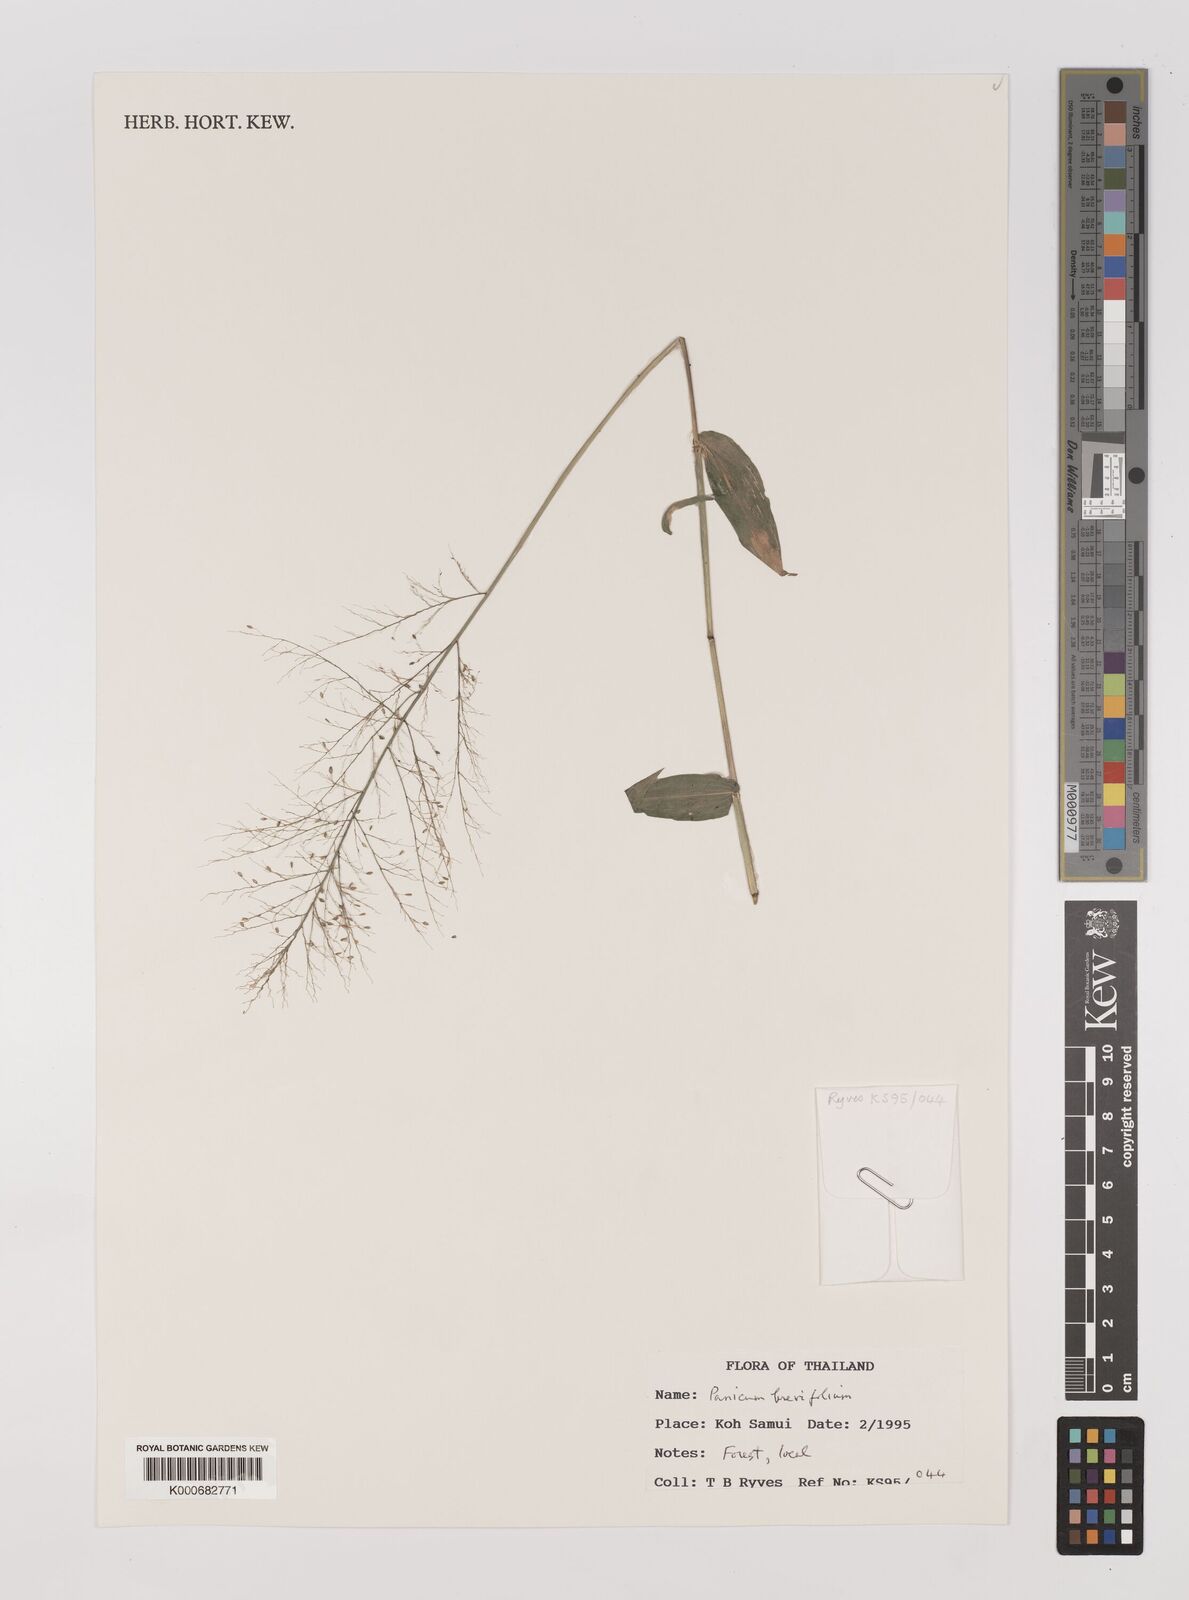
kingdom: Plantae
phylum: Tracheophyta
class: Liliopsida
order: Poales
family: Poaceae
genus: Panicum
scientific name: Panicum brevifolium
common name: Shortleaf panic grass
